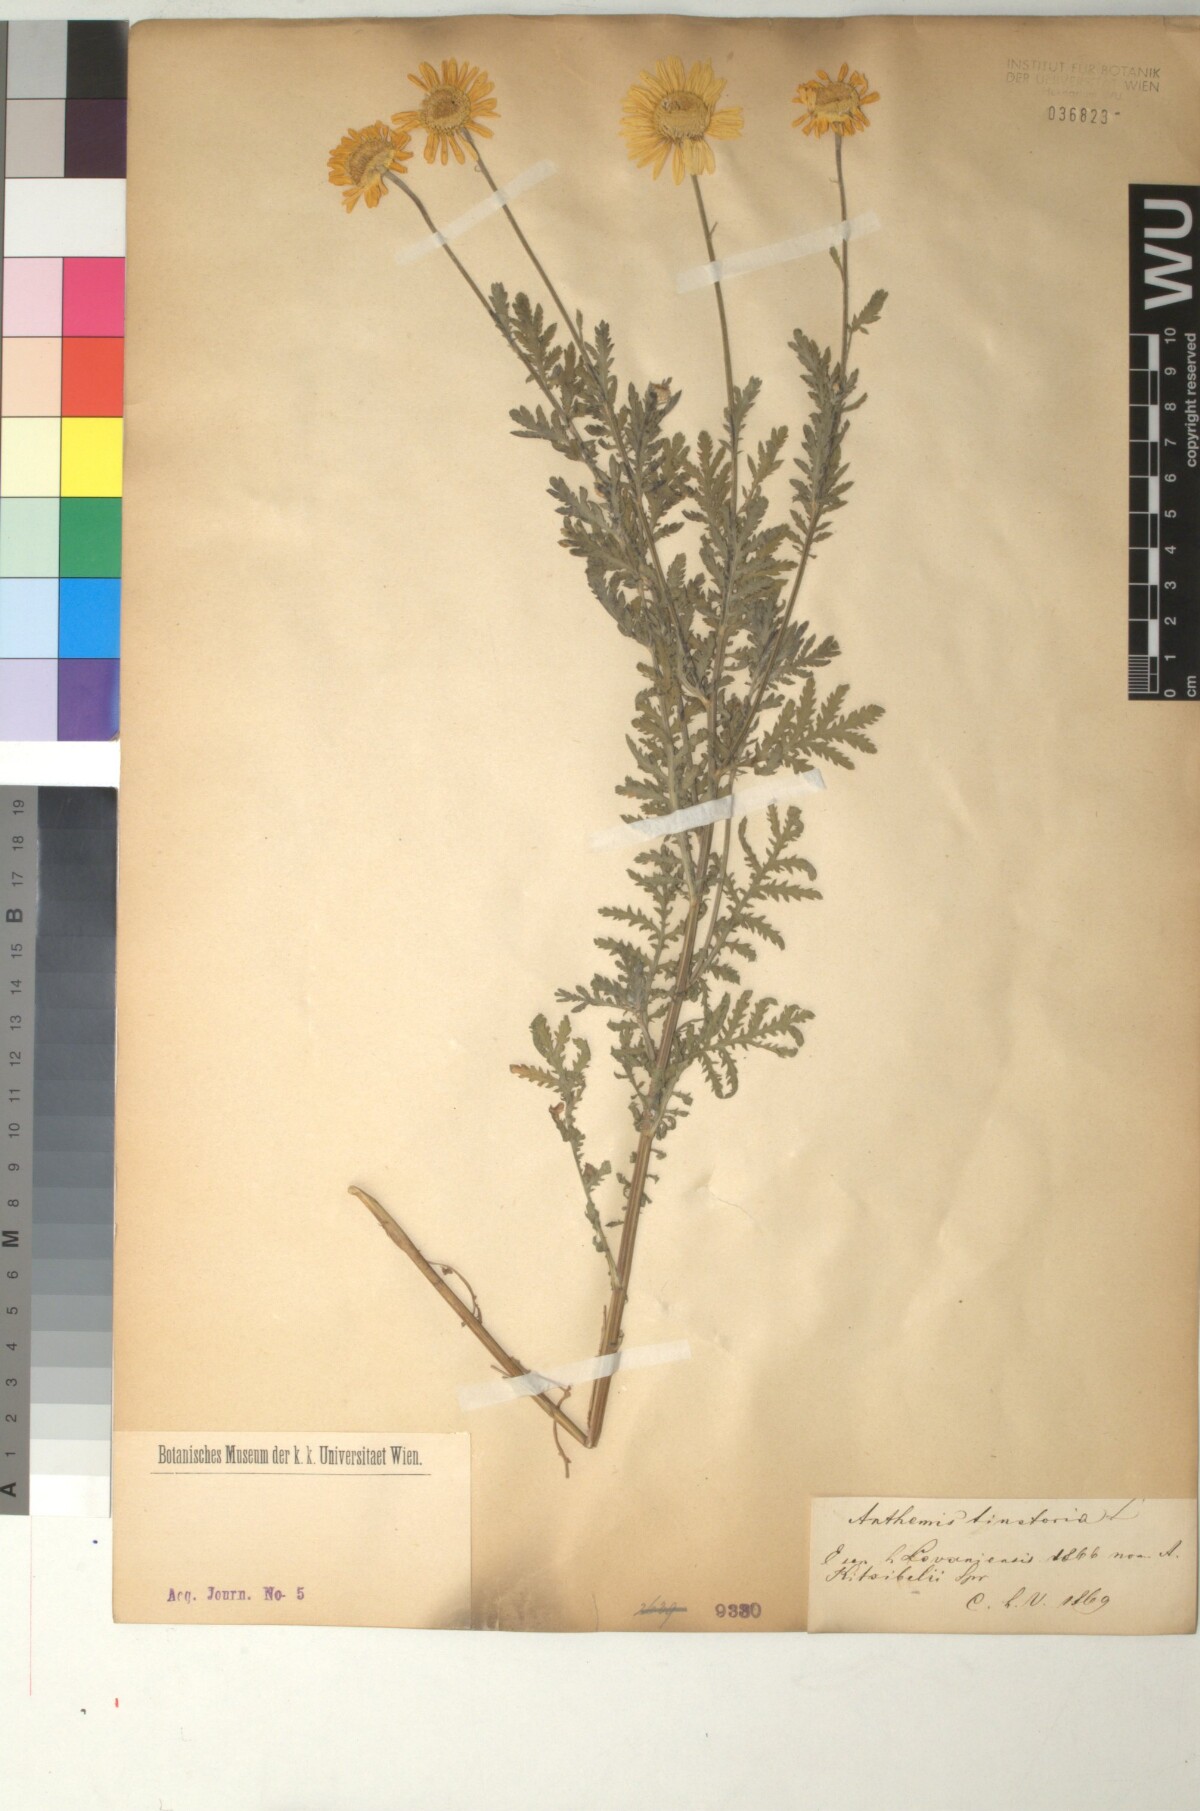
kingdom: Plantae
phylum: Tracheophyta
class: Magnoliopsida
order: Asterales
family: Asteraceae
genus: Cota
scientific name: Cota tinctoria
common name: Golden chamomile
